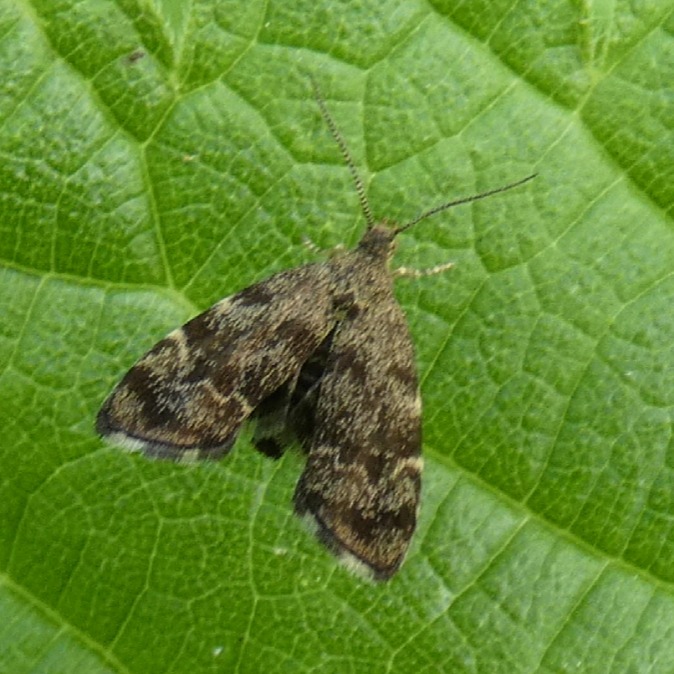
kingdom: Animalia
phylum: Arthropoda
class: Insecta
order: Lepidoptera
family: Choreutidae
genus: Anthophila
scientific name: Anthophila fabriciana
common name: Bredvinget nældevikler
